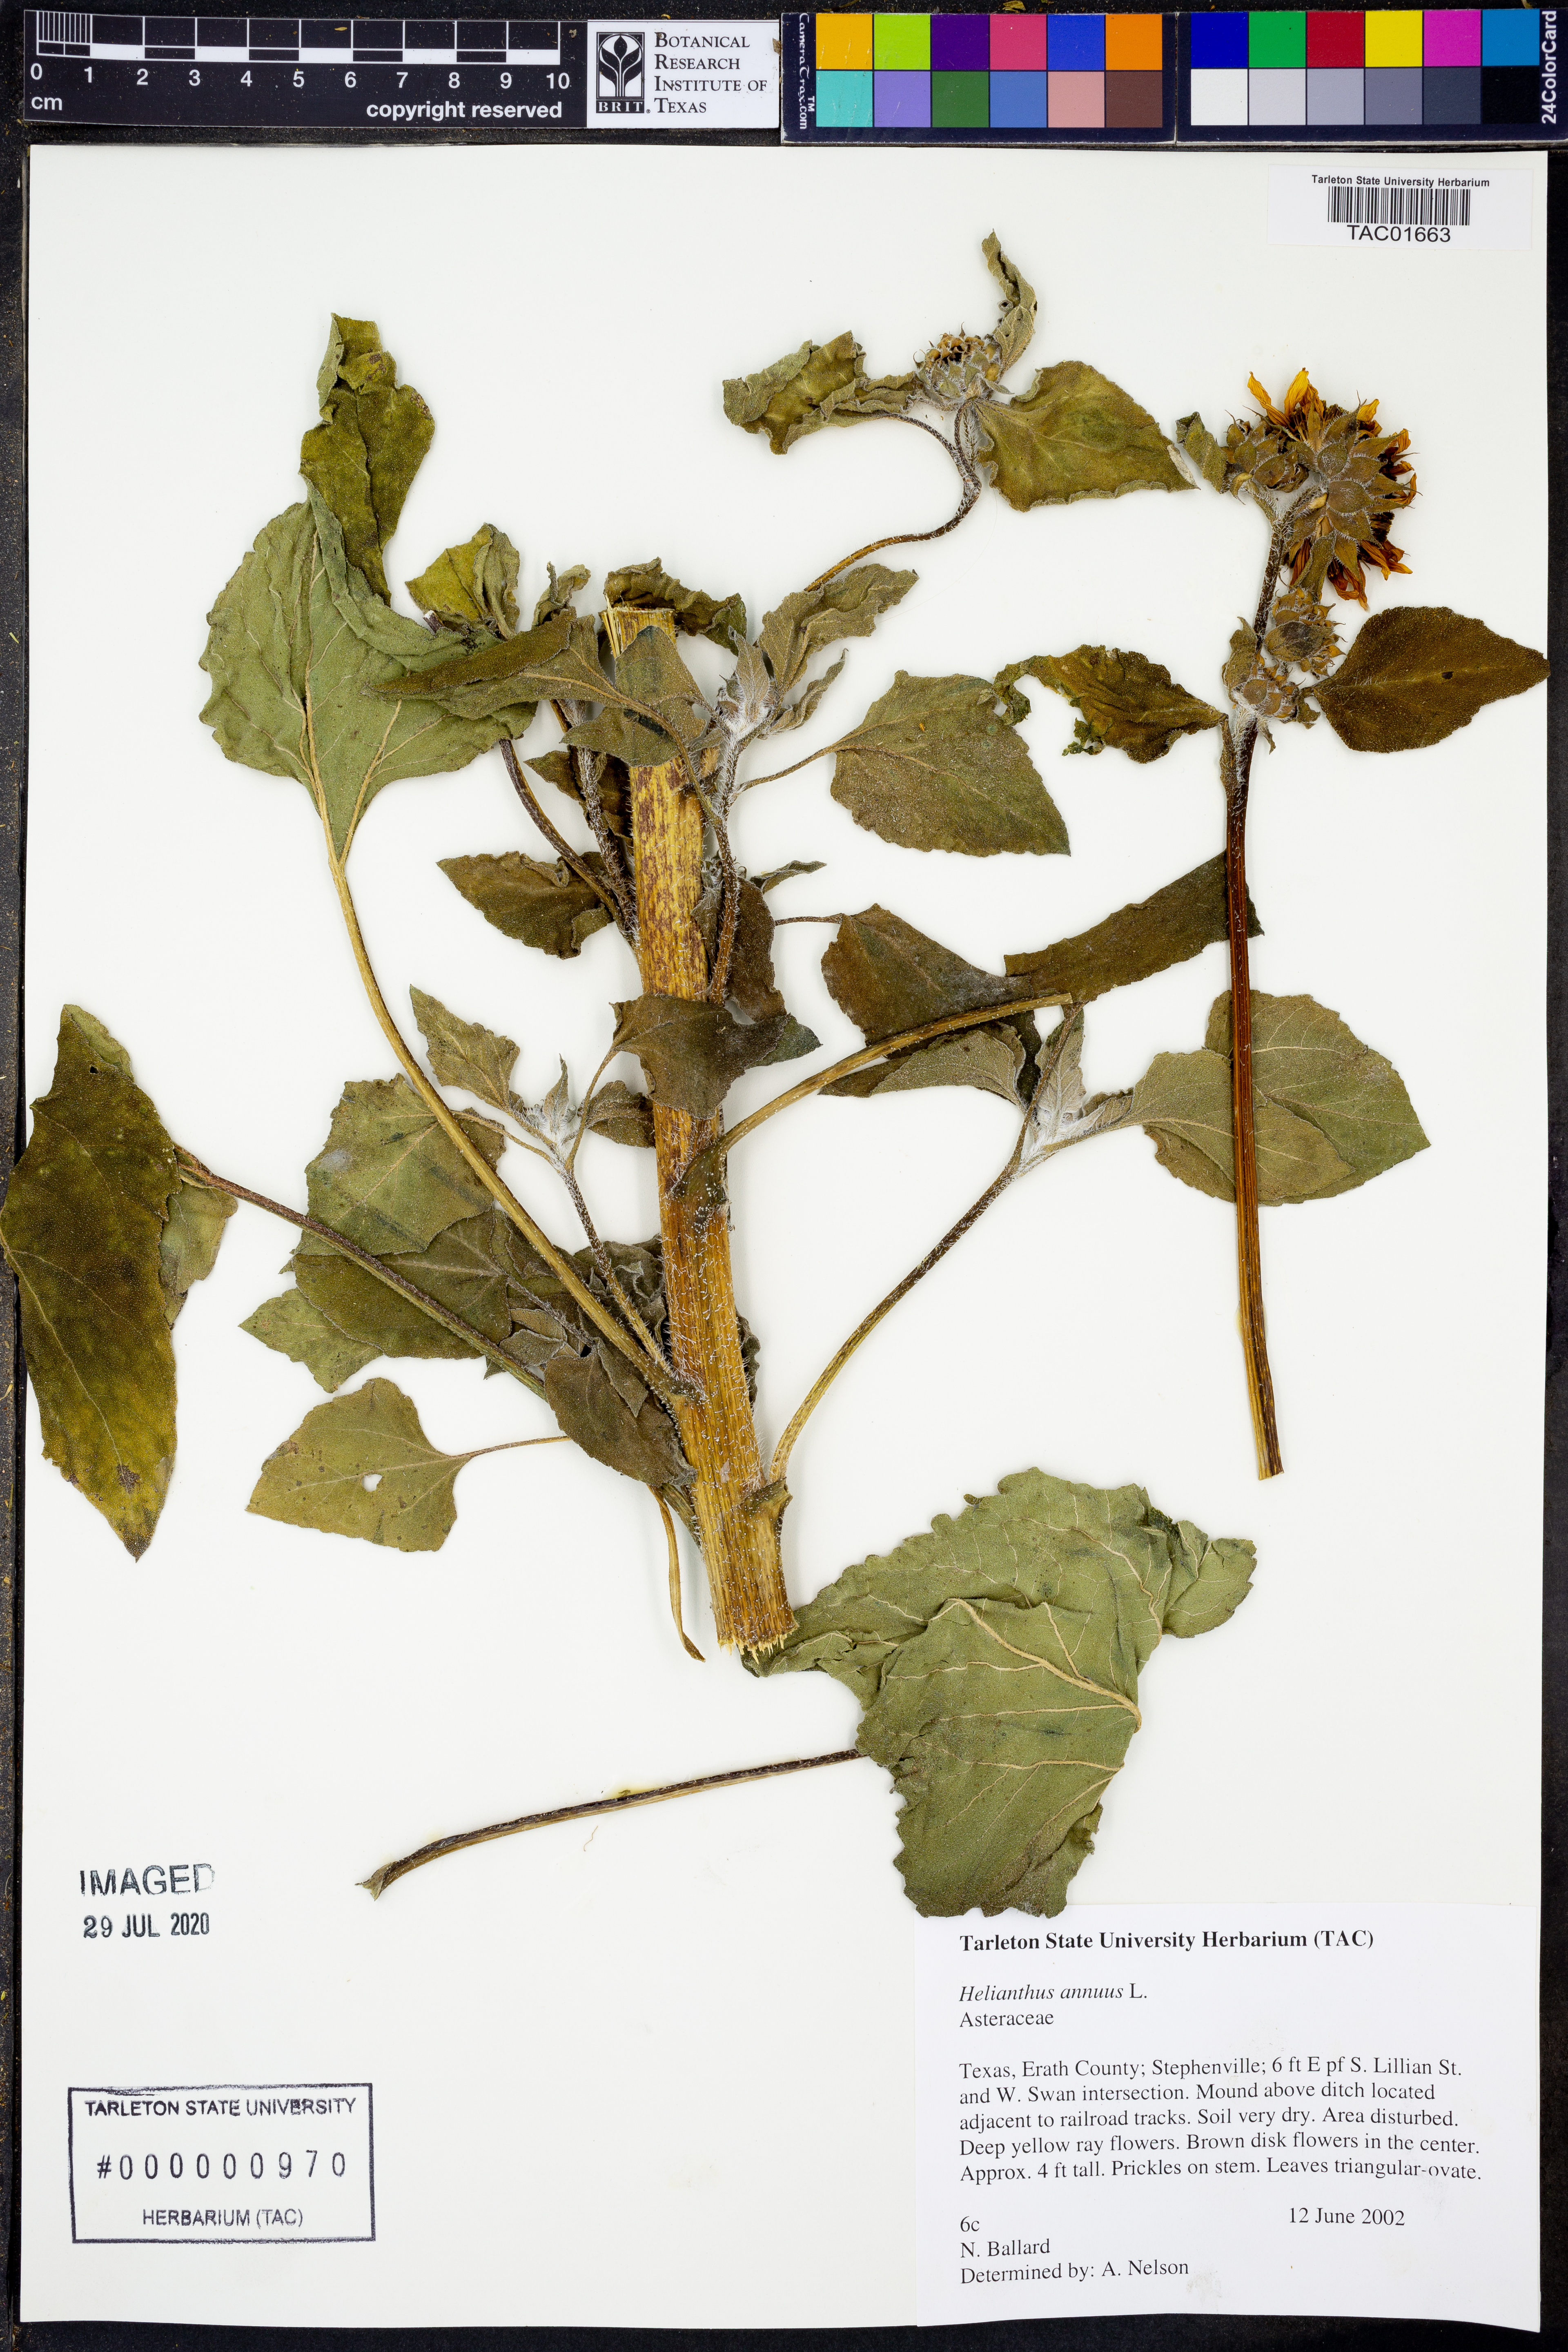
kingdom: Plantae
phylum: Tracheophyta
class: Magnoliopsida
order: Asterales
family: Asteraceae
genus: Helianthus
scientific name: Helianthus annuus
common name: Sunflower
